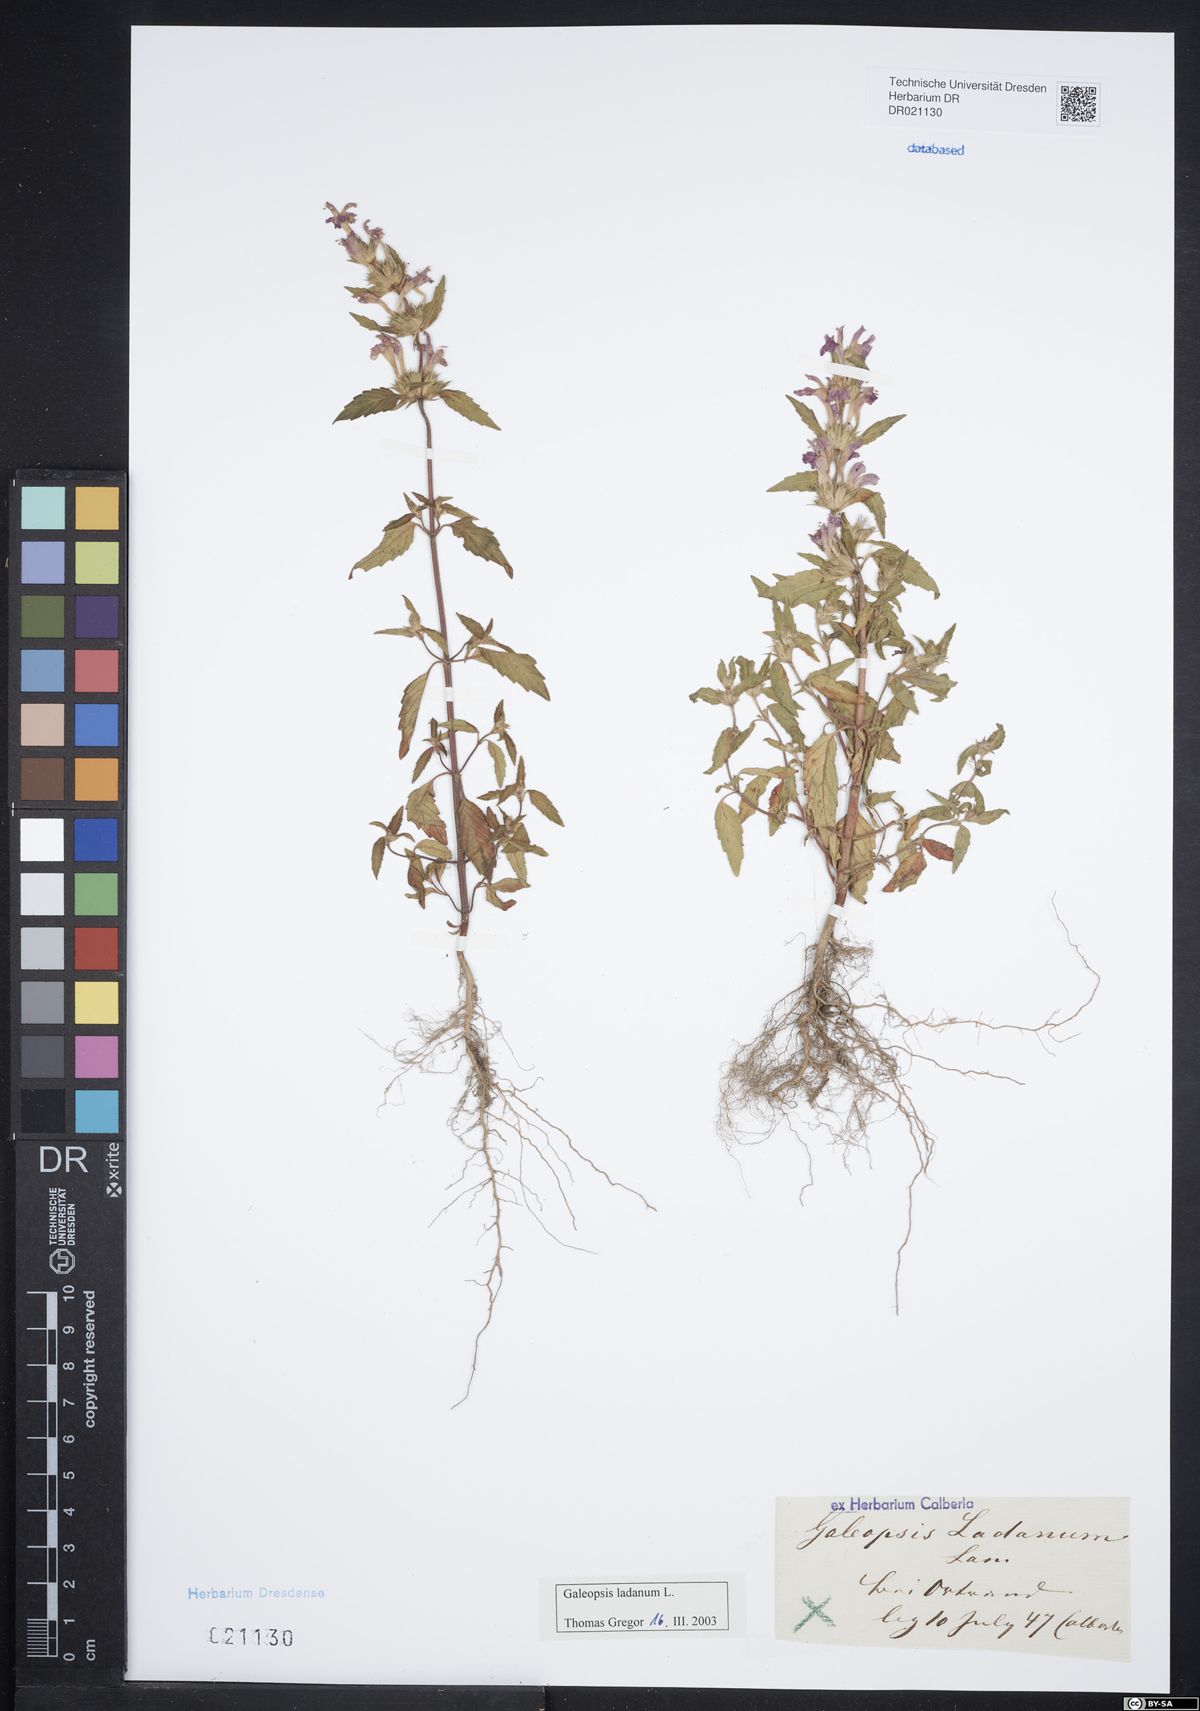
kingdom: Plantae
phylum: Tracheophyta
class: Magnoliopsida
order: Lamiales
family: Lamiaceae
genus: Galeopsis
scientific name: Galeopsis ladanum
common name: Broad-leaved hemp-nettle
